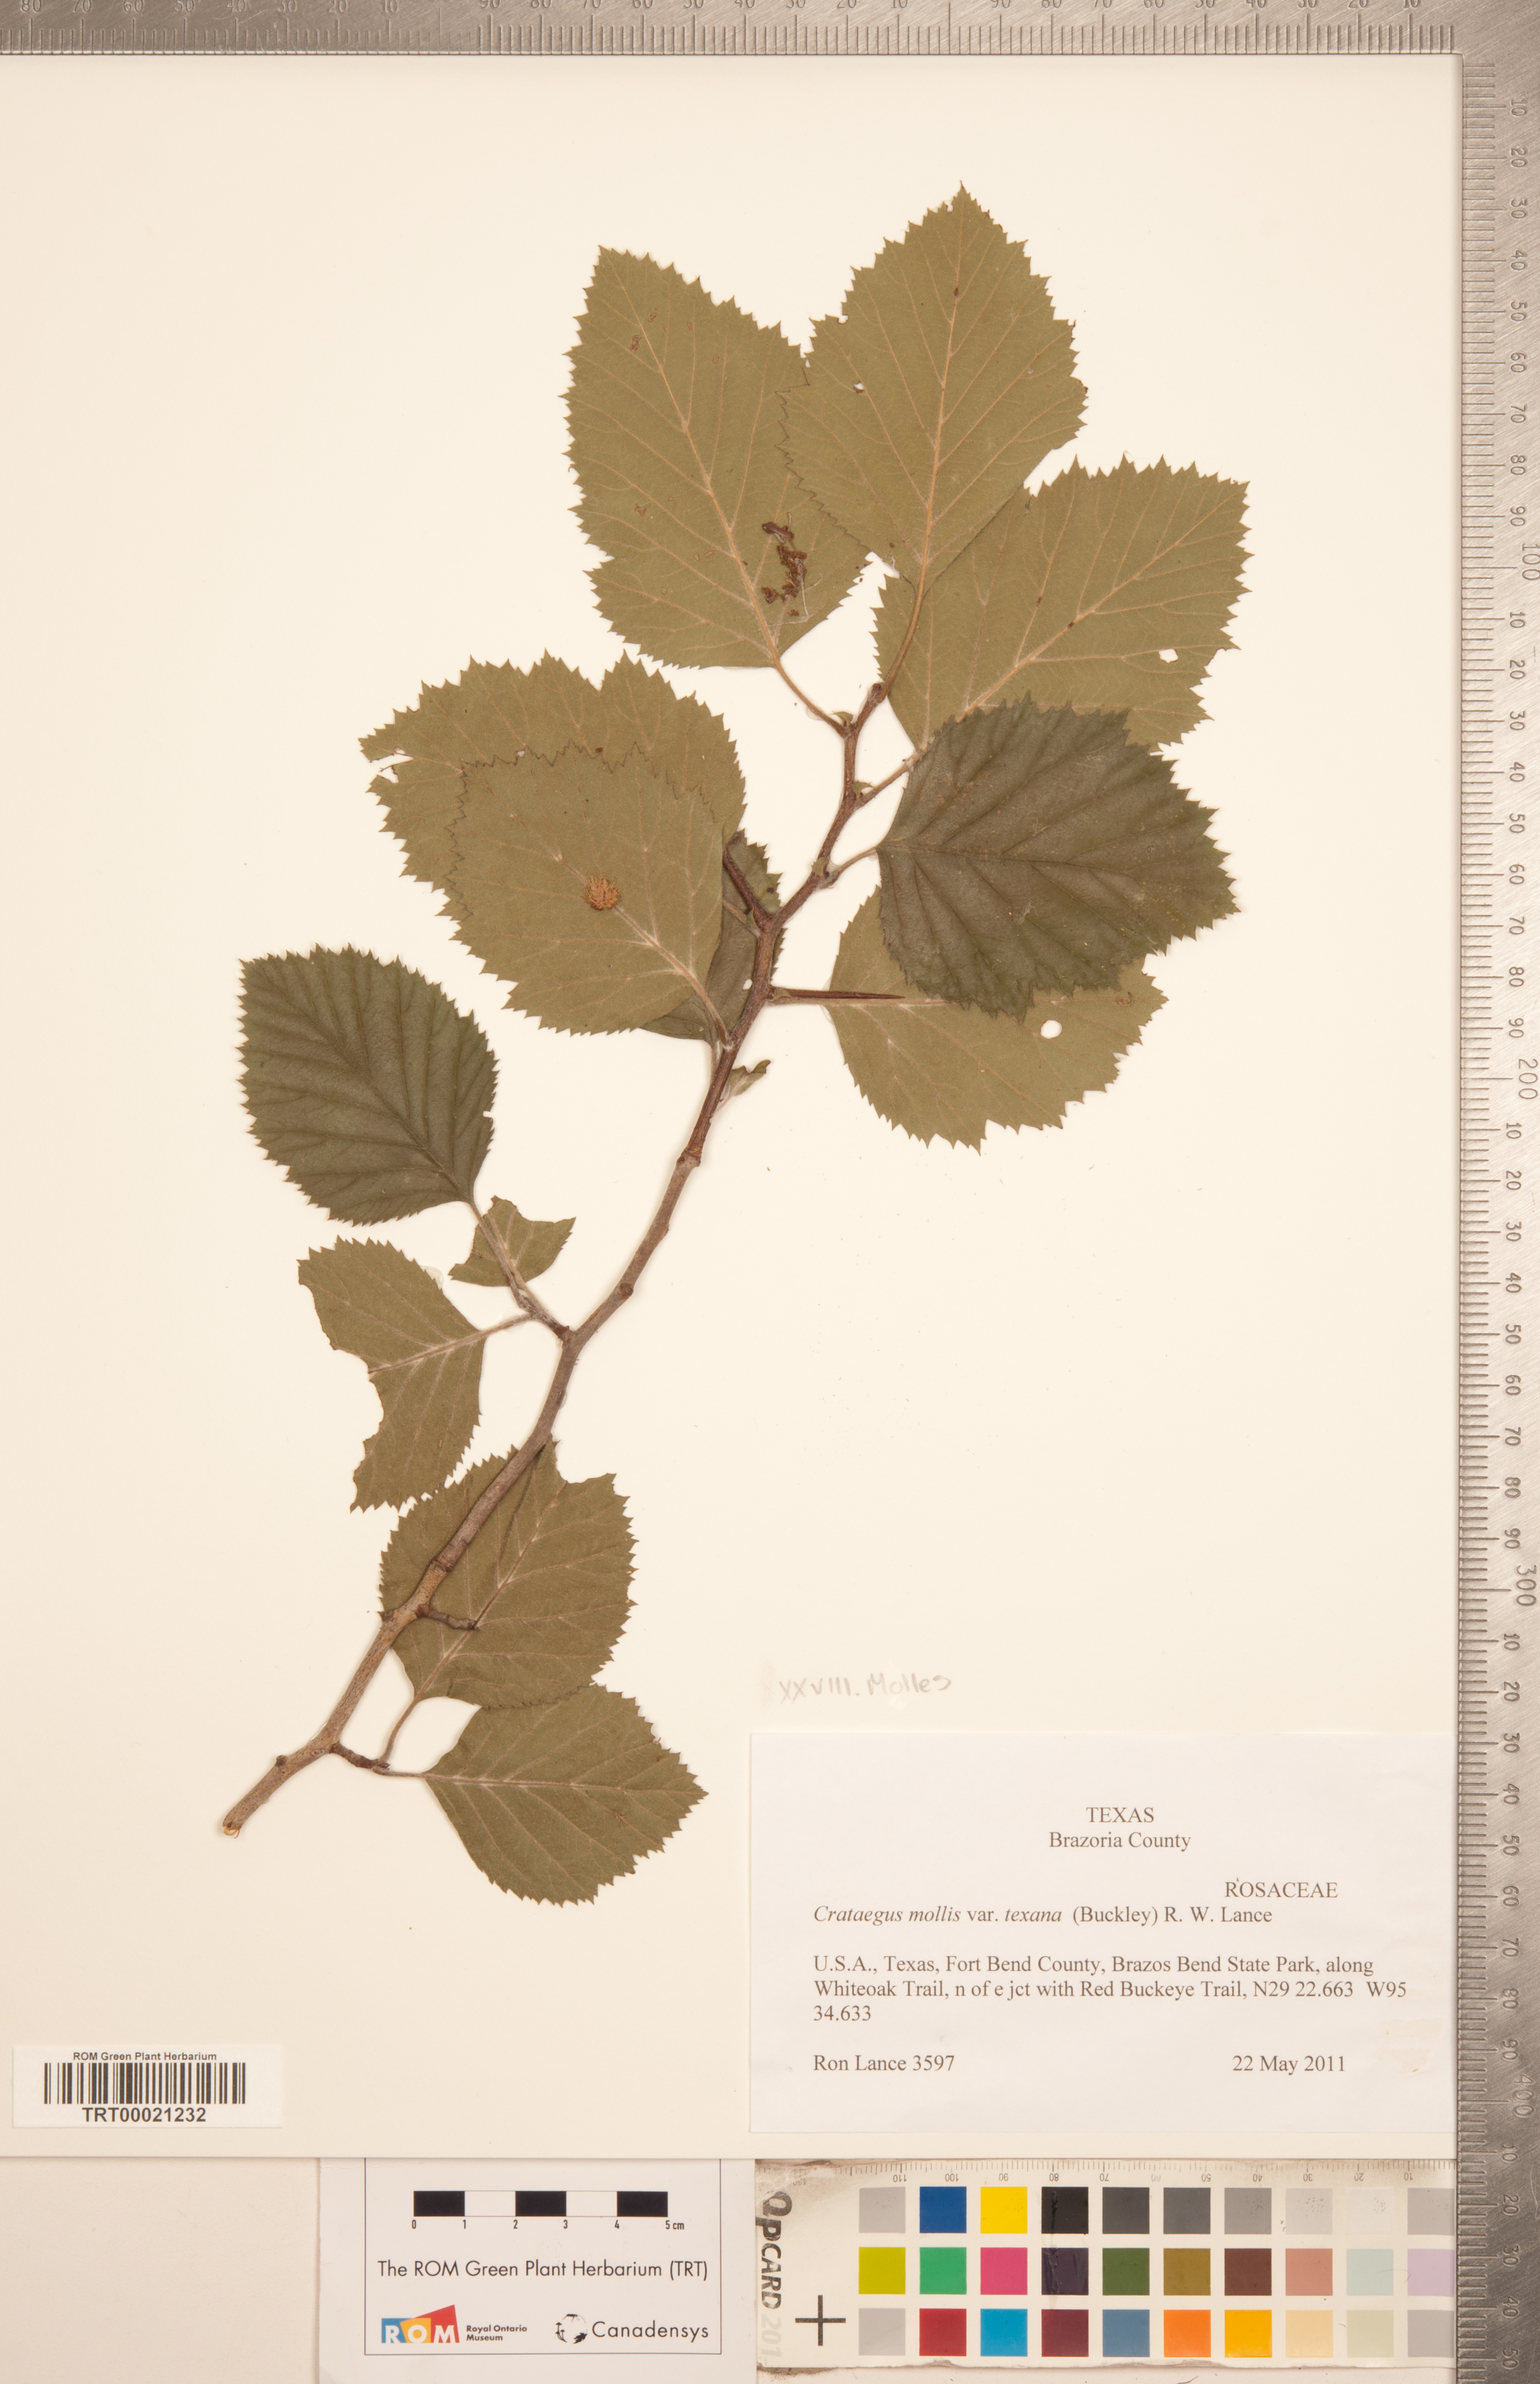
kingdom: Plantae
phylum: Tracheophyta
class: Magnoliopsida
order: Rosales
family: Rosaceae
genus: Crataegus
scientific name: Crataegus texana
